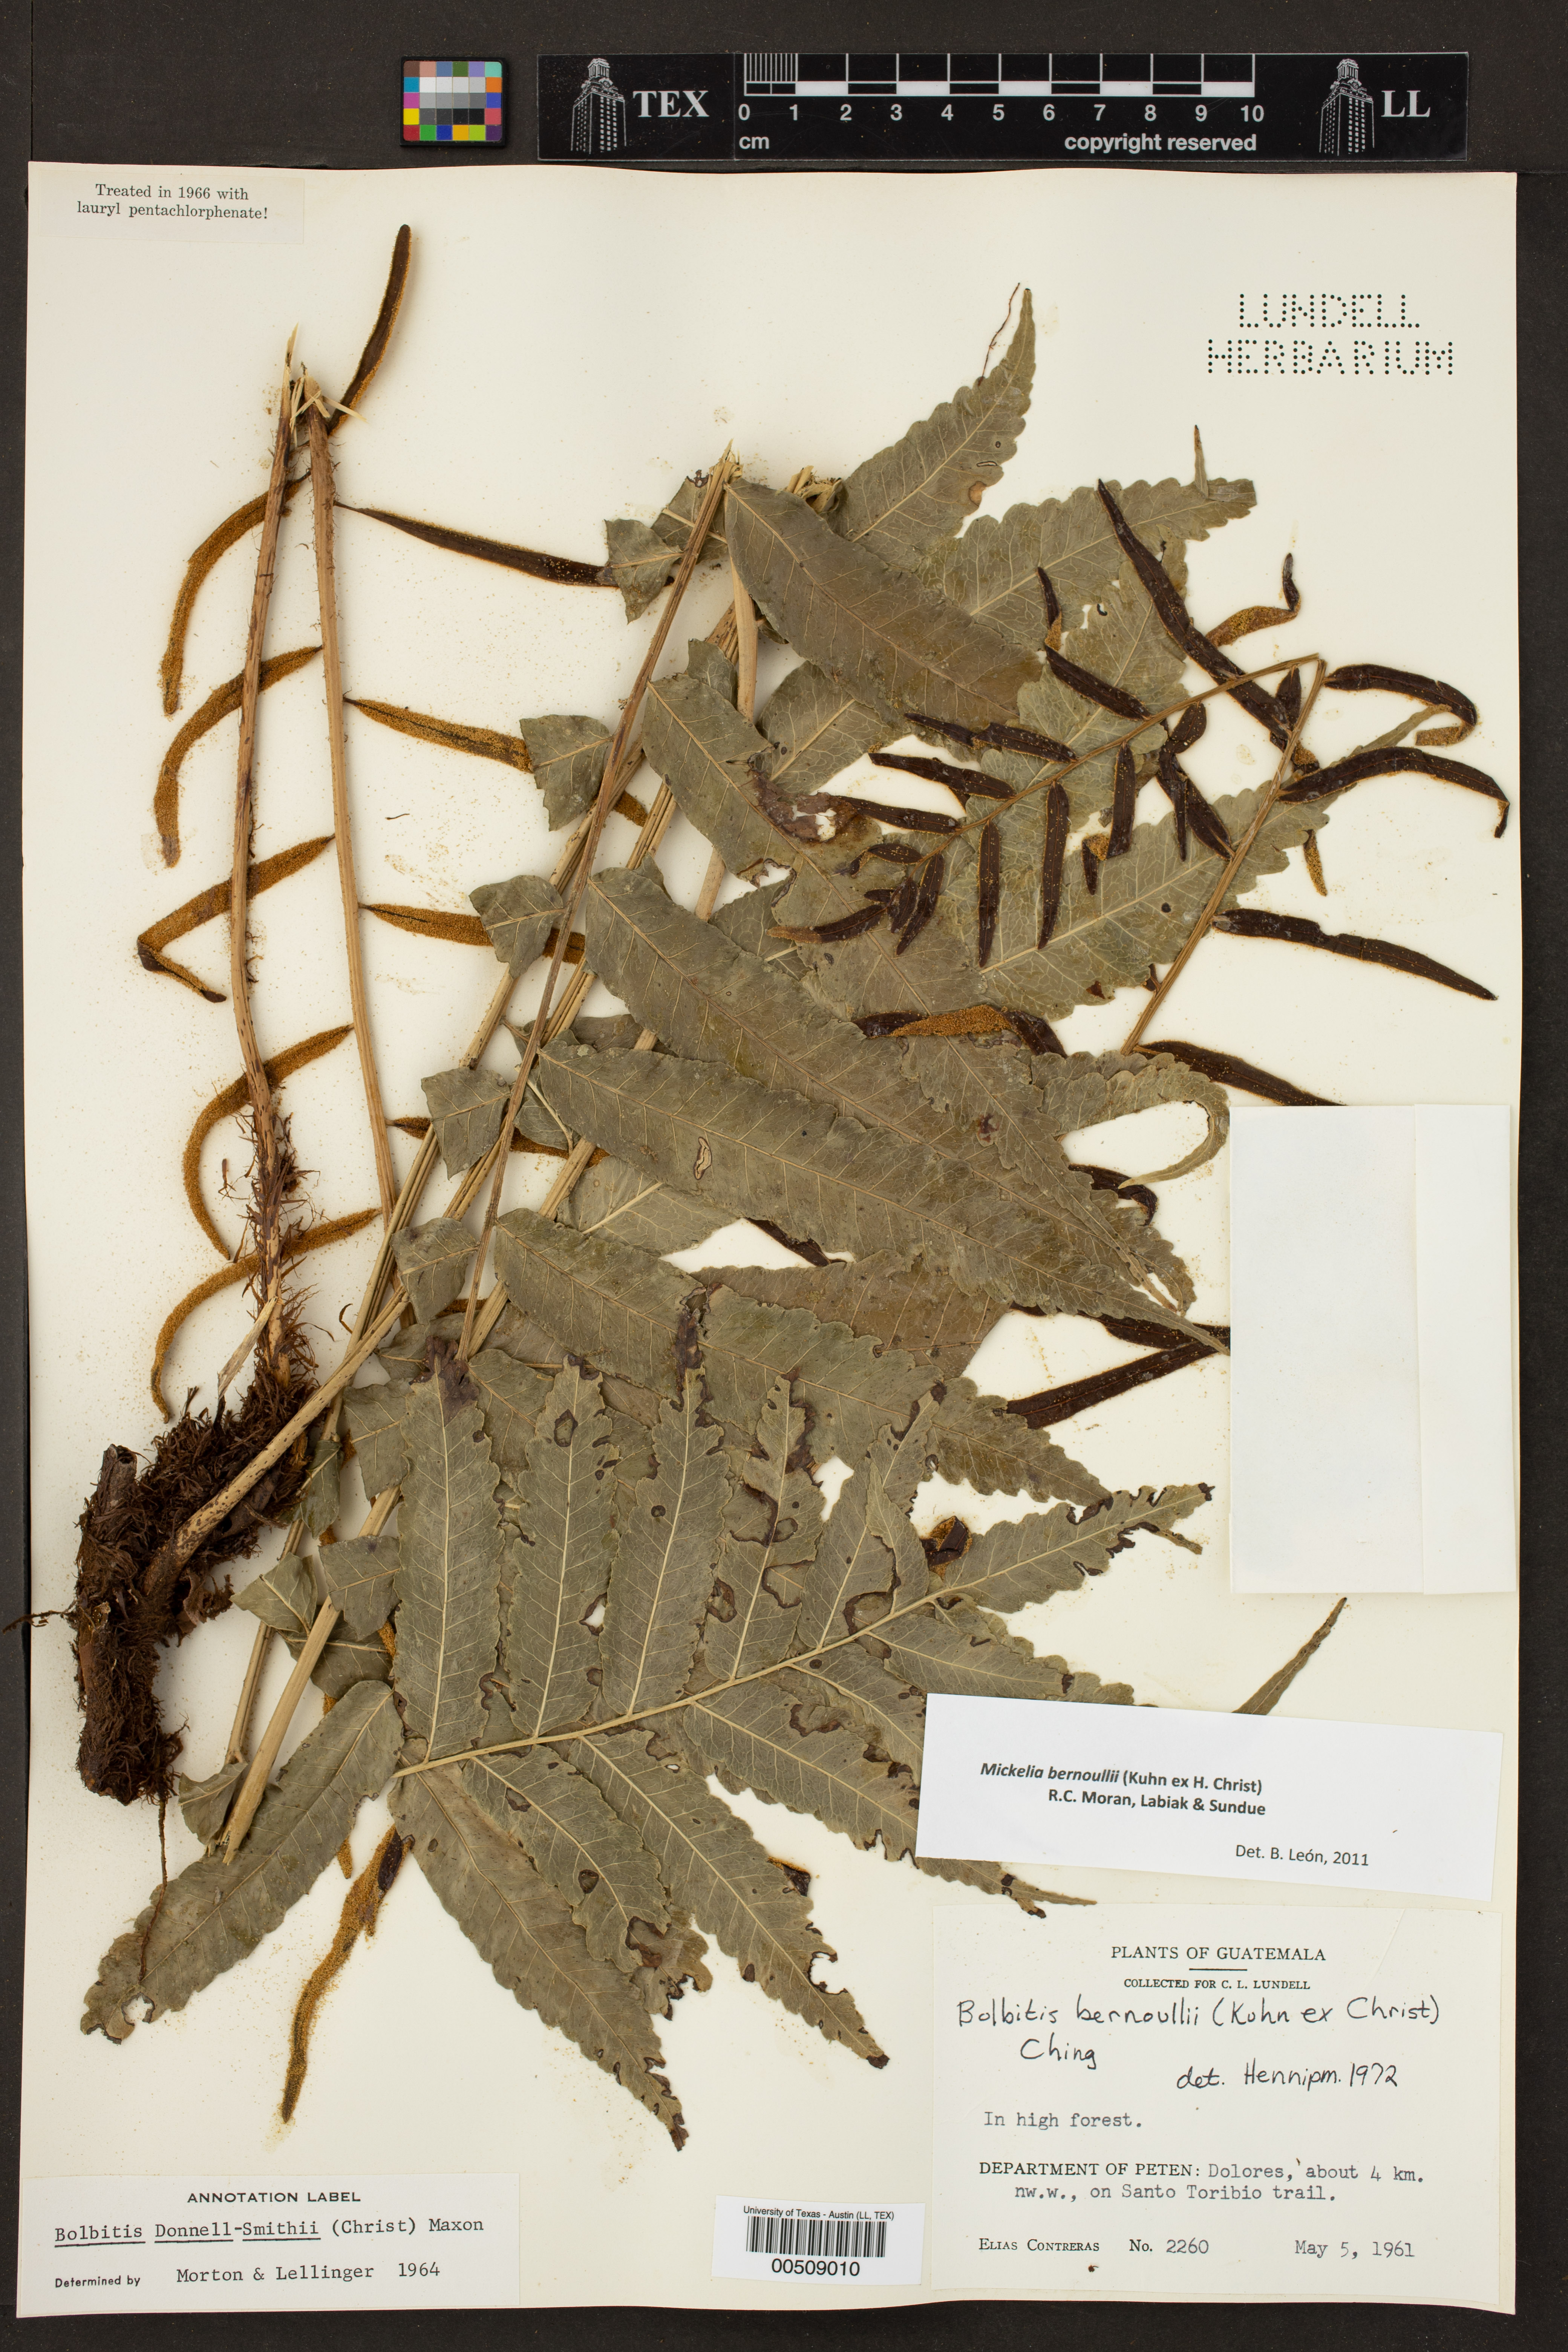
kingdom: Plantae
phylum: Tracheophyta
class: Polypodiopsida
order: Polypodiales
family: Dryopteridaceae
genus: Mickelia
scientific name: Mickelia bernoullii
